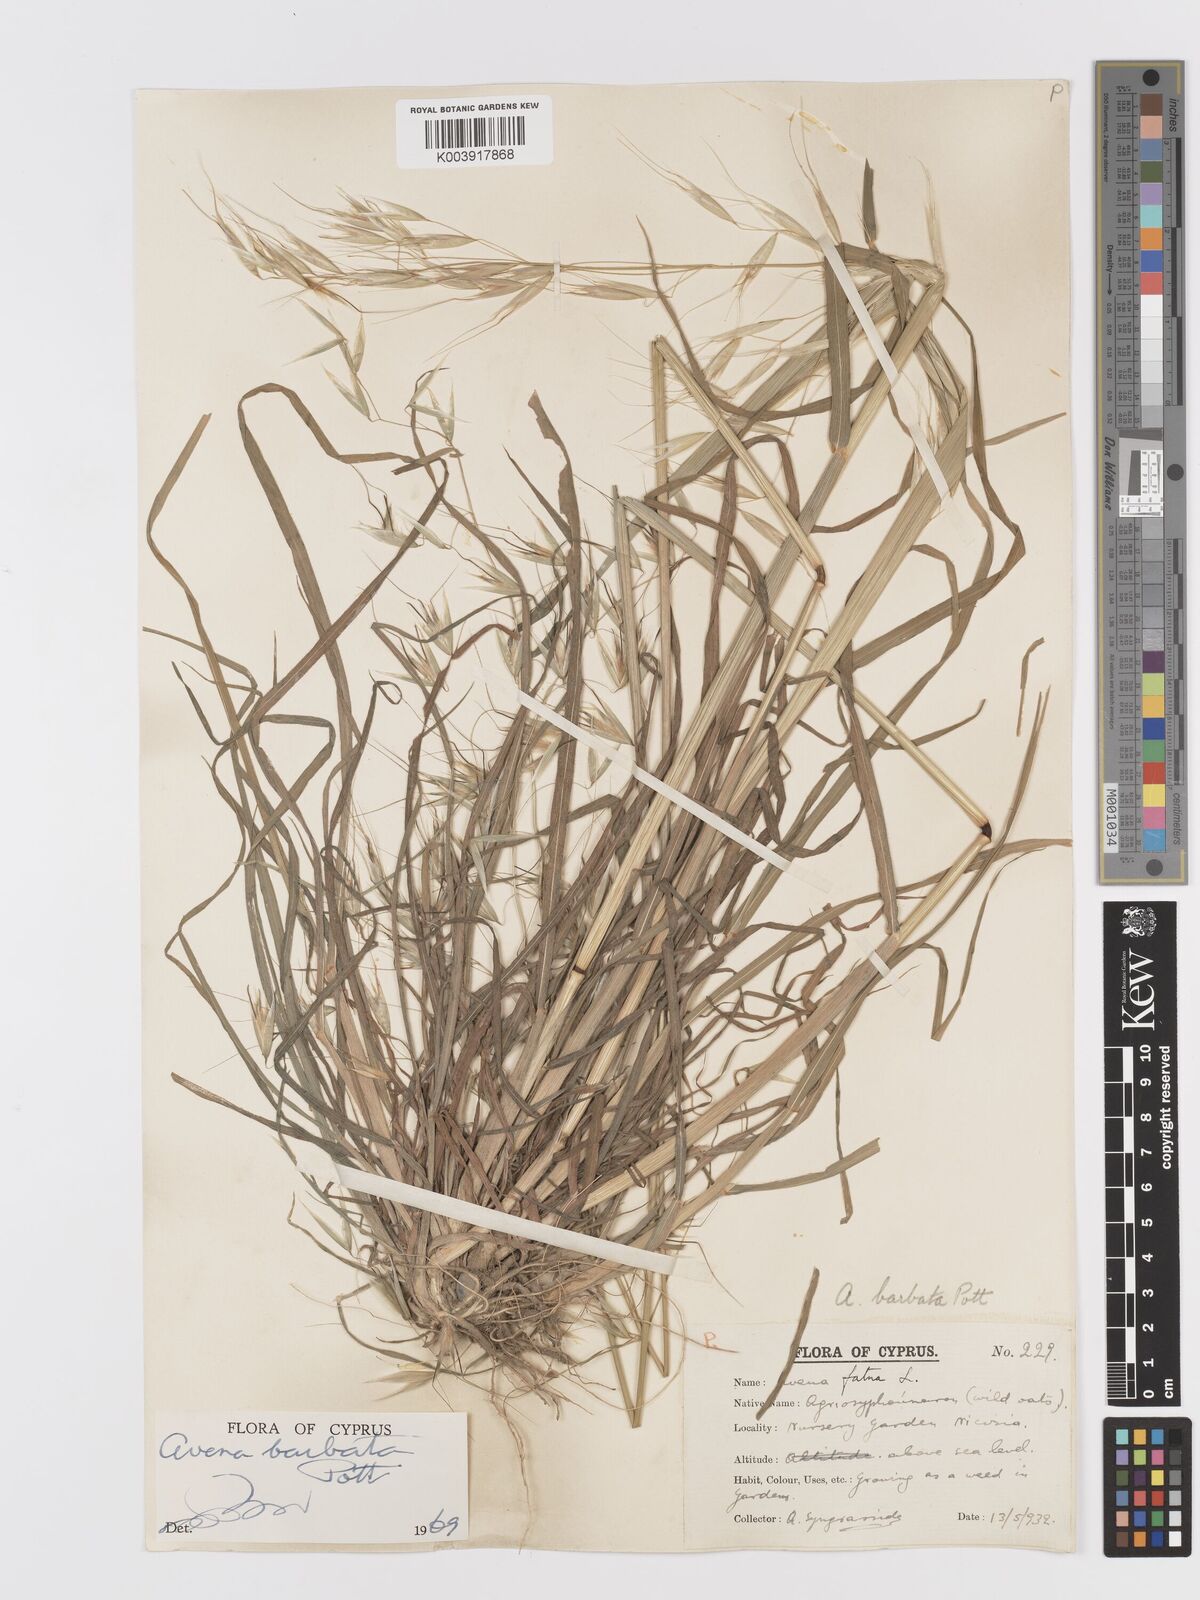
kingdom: Plantae
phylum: Tracheophyta
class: Liliopsida
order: Poales
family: Poaceae
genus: Avena
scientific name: Avena
